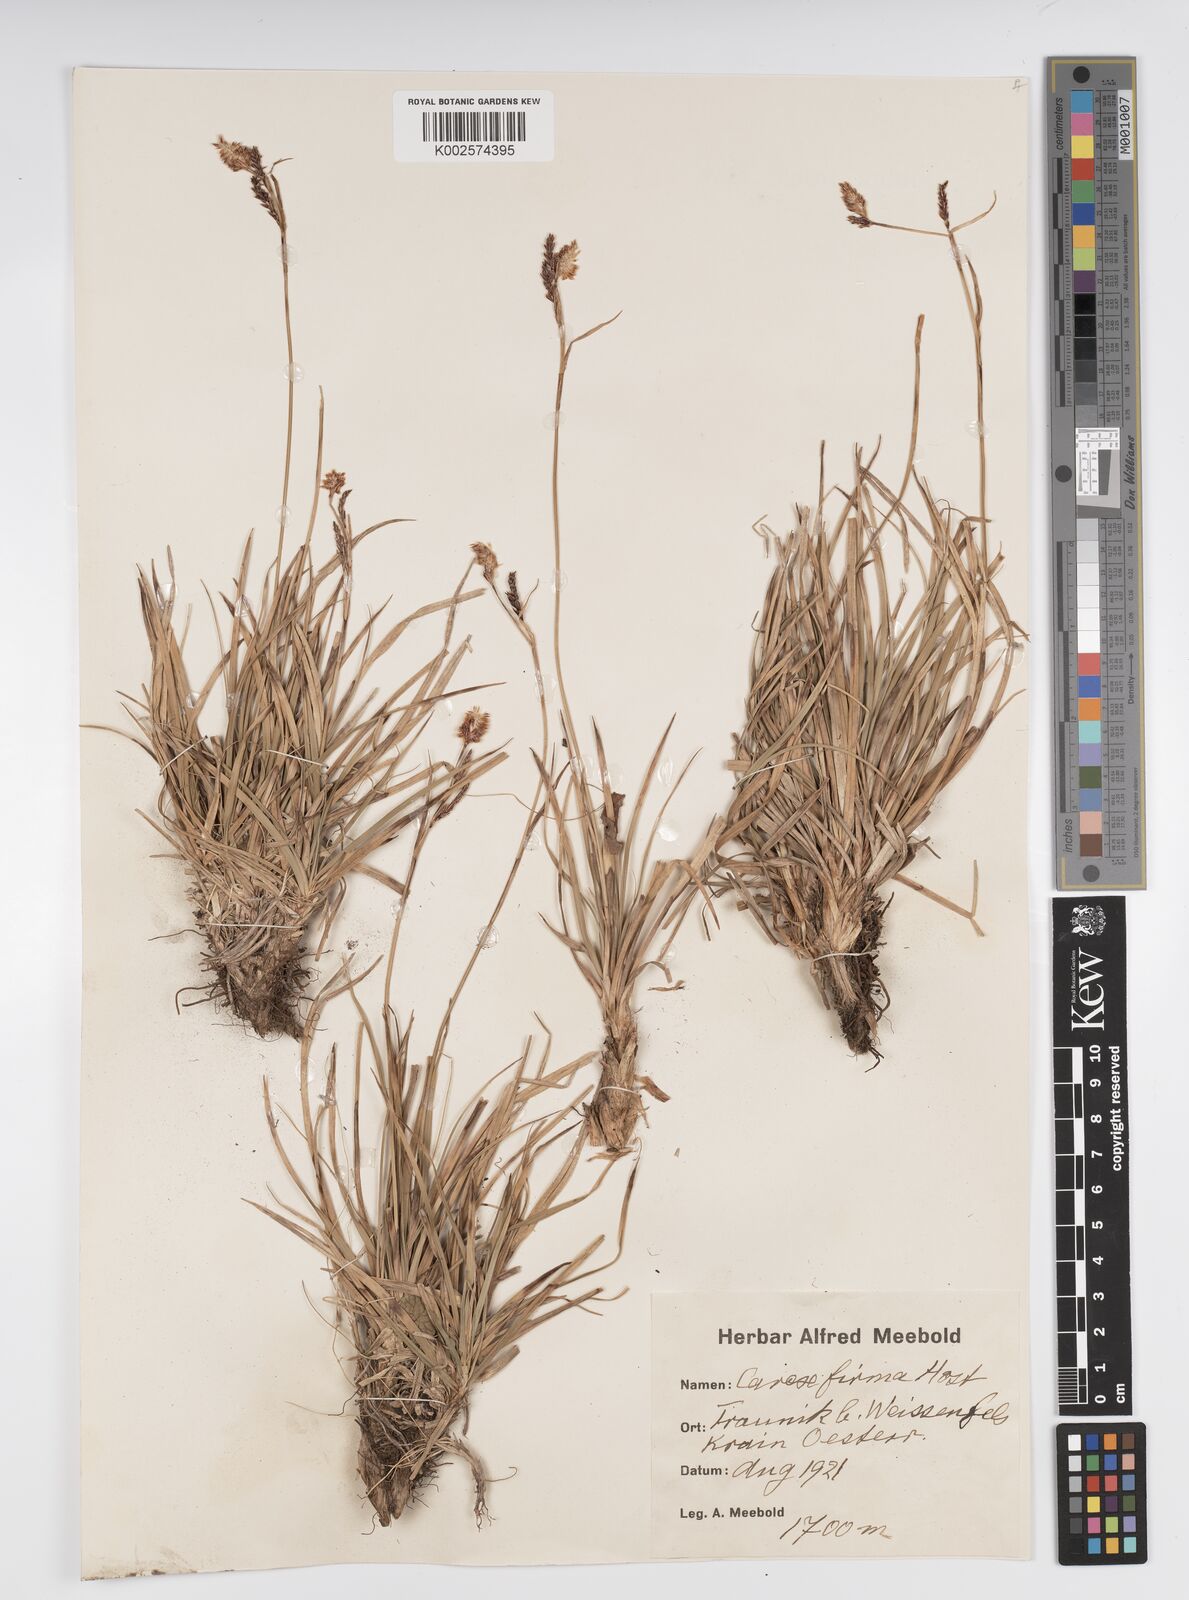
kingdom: Plantae
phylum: Tracheophyta
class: Liliopsida
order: Poales
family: Cyperaceae
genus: Carex
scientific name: Carex firma
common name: Dwarf pillow sedge
